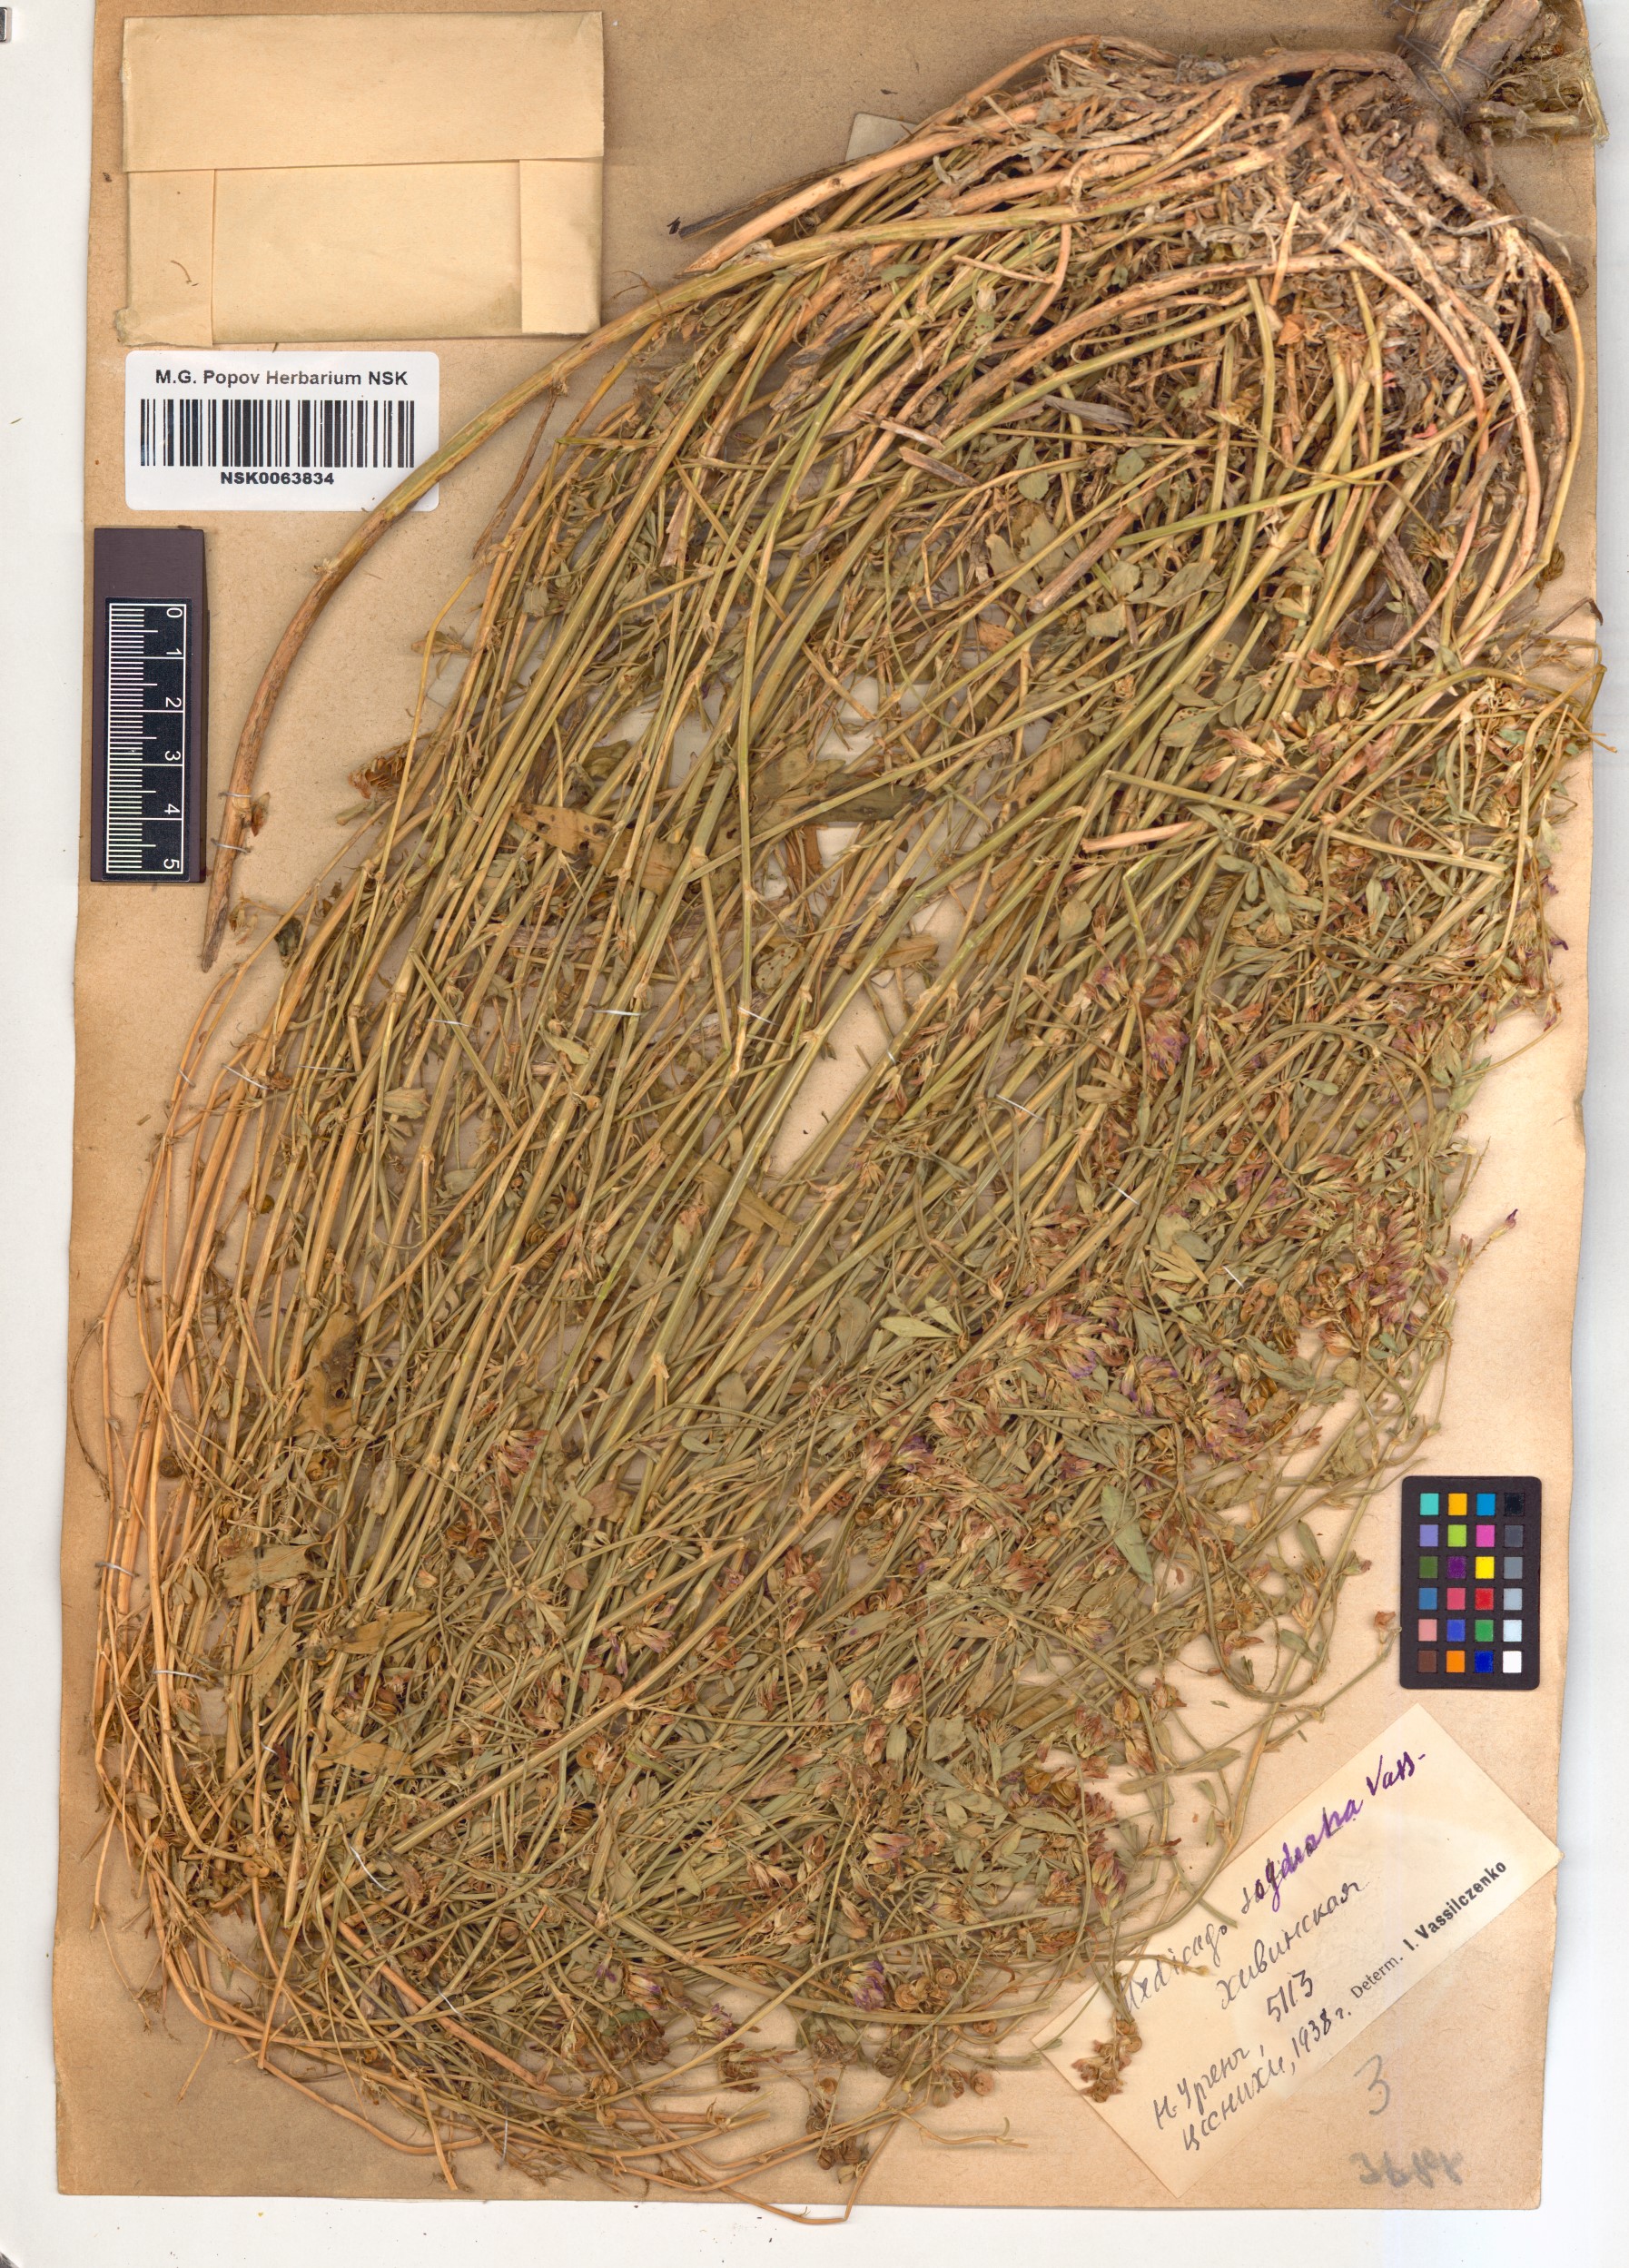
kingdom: Plantae
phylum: Tracheophyta
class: Magnoliopsida
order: Fabales
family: Fabaceae
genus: Medicago
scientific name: Medicago sativa
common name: Alfalfa
